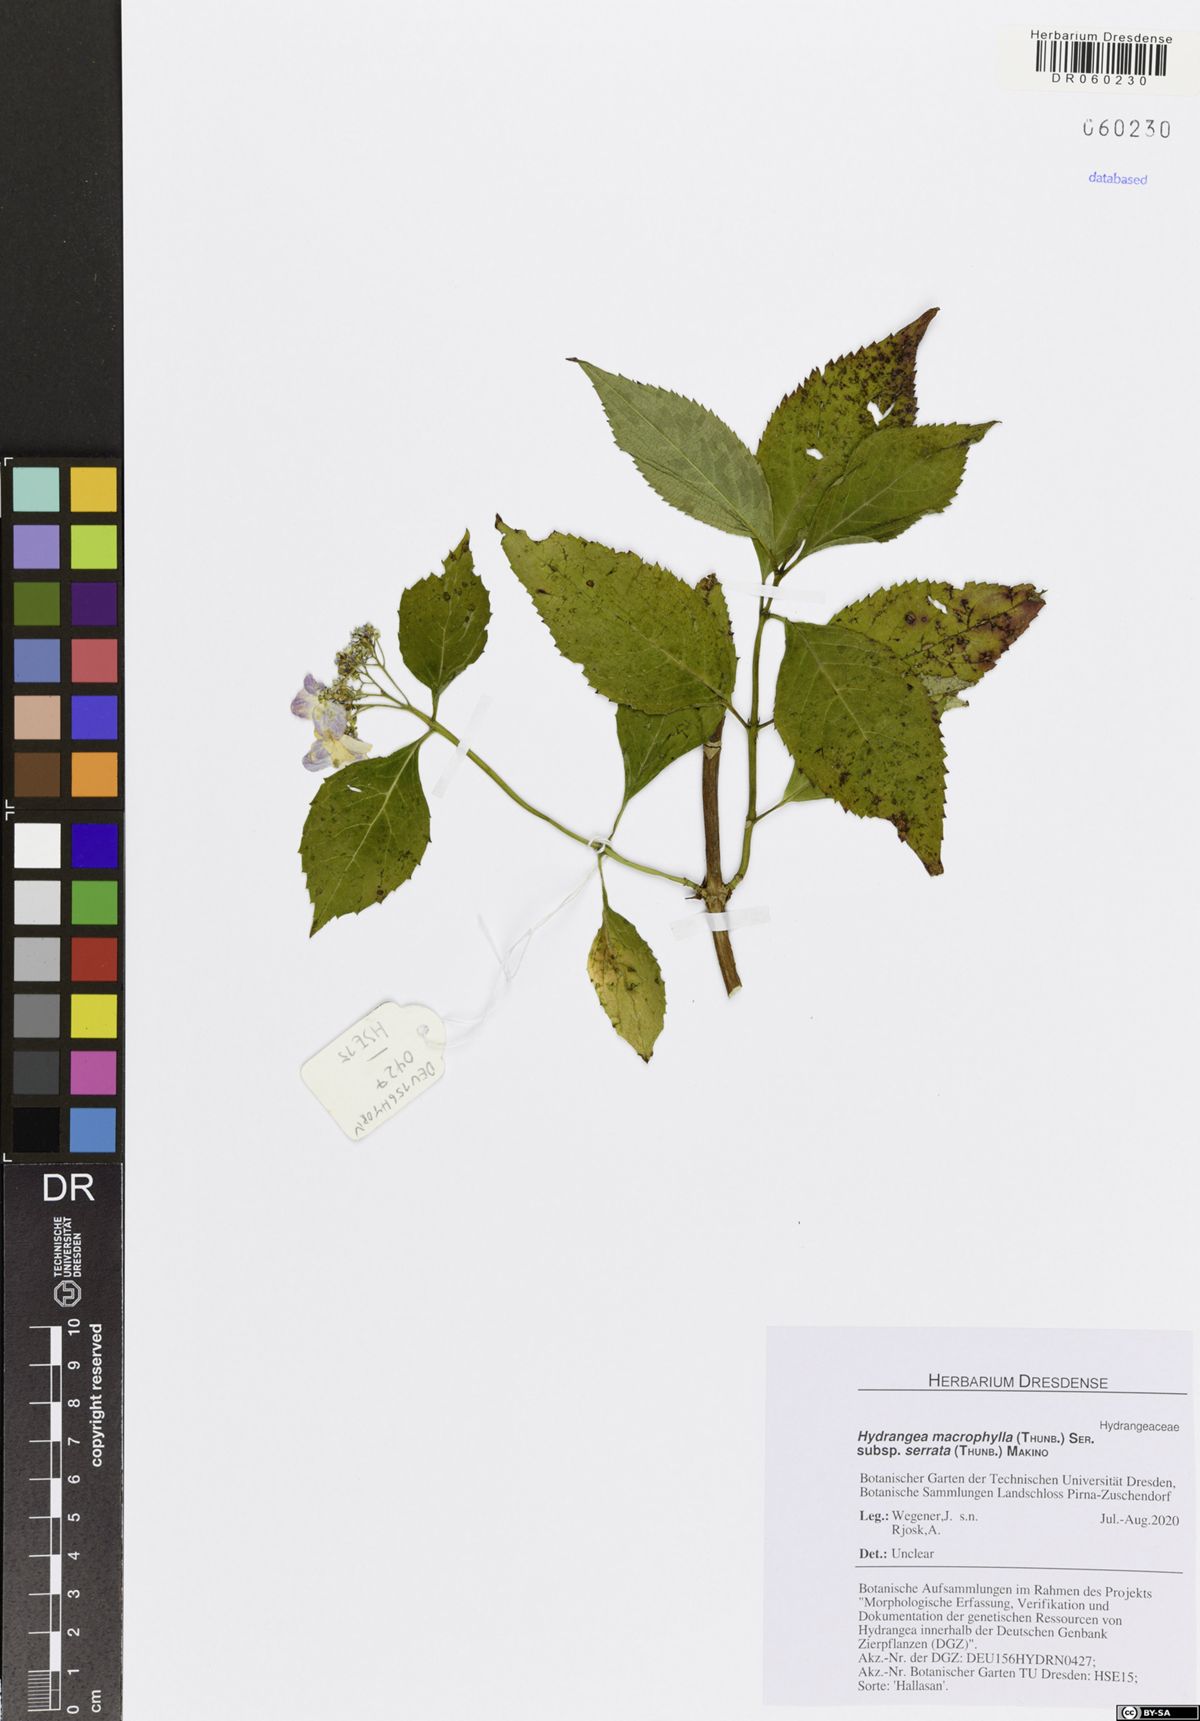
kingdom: Plantae
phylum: Tracheophyta
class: Magnoliopsida
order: Cornales
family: Hydrangeaceae
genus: Hydrangea
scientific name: Hydrangea serrata
